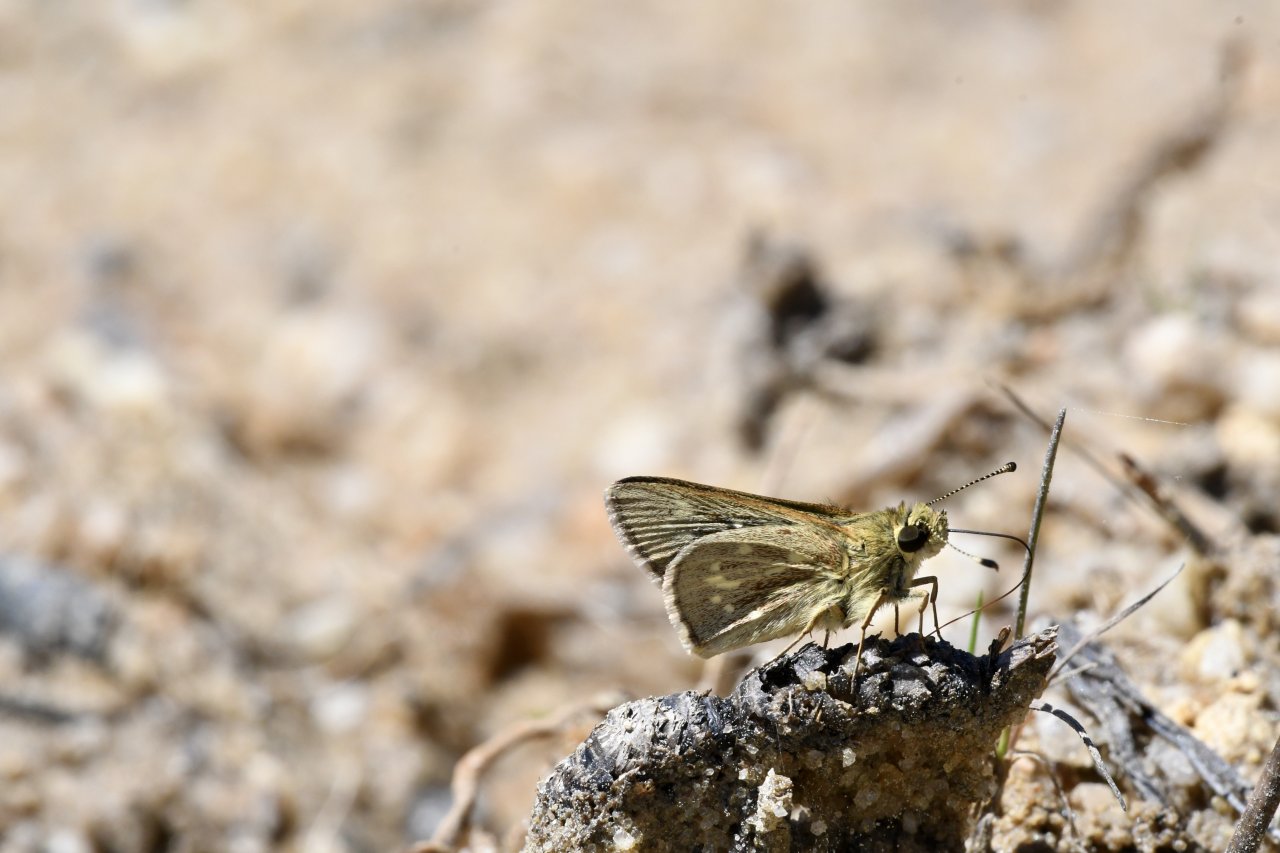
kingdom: Animalia
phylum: Arthropoda
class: Insecta
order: Lepidoptera
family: Hesperiidae
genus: Mastor
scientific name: Mastor carolina
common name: Reversed Roadside-skipper
